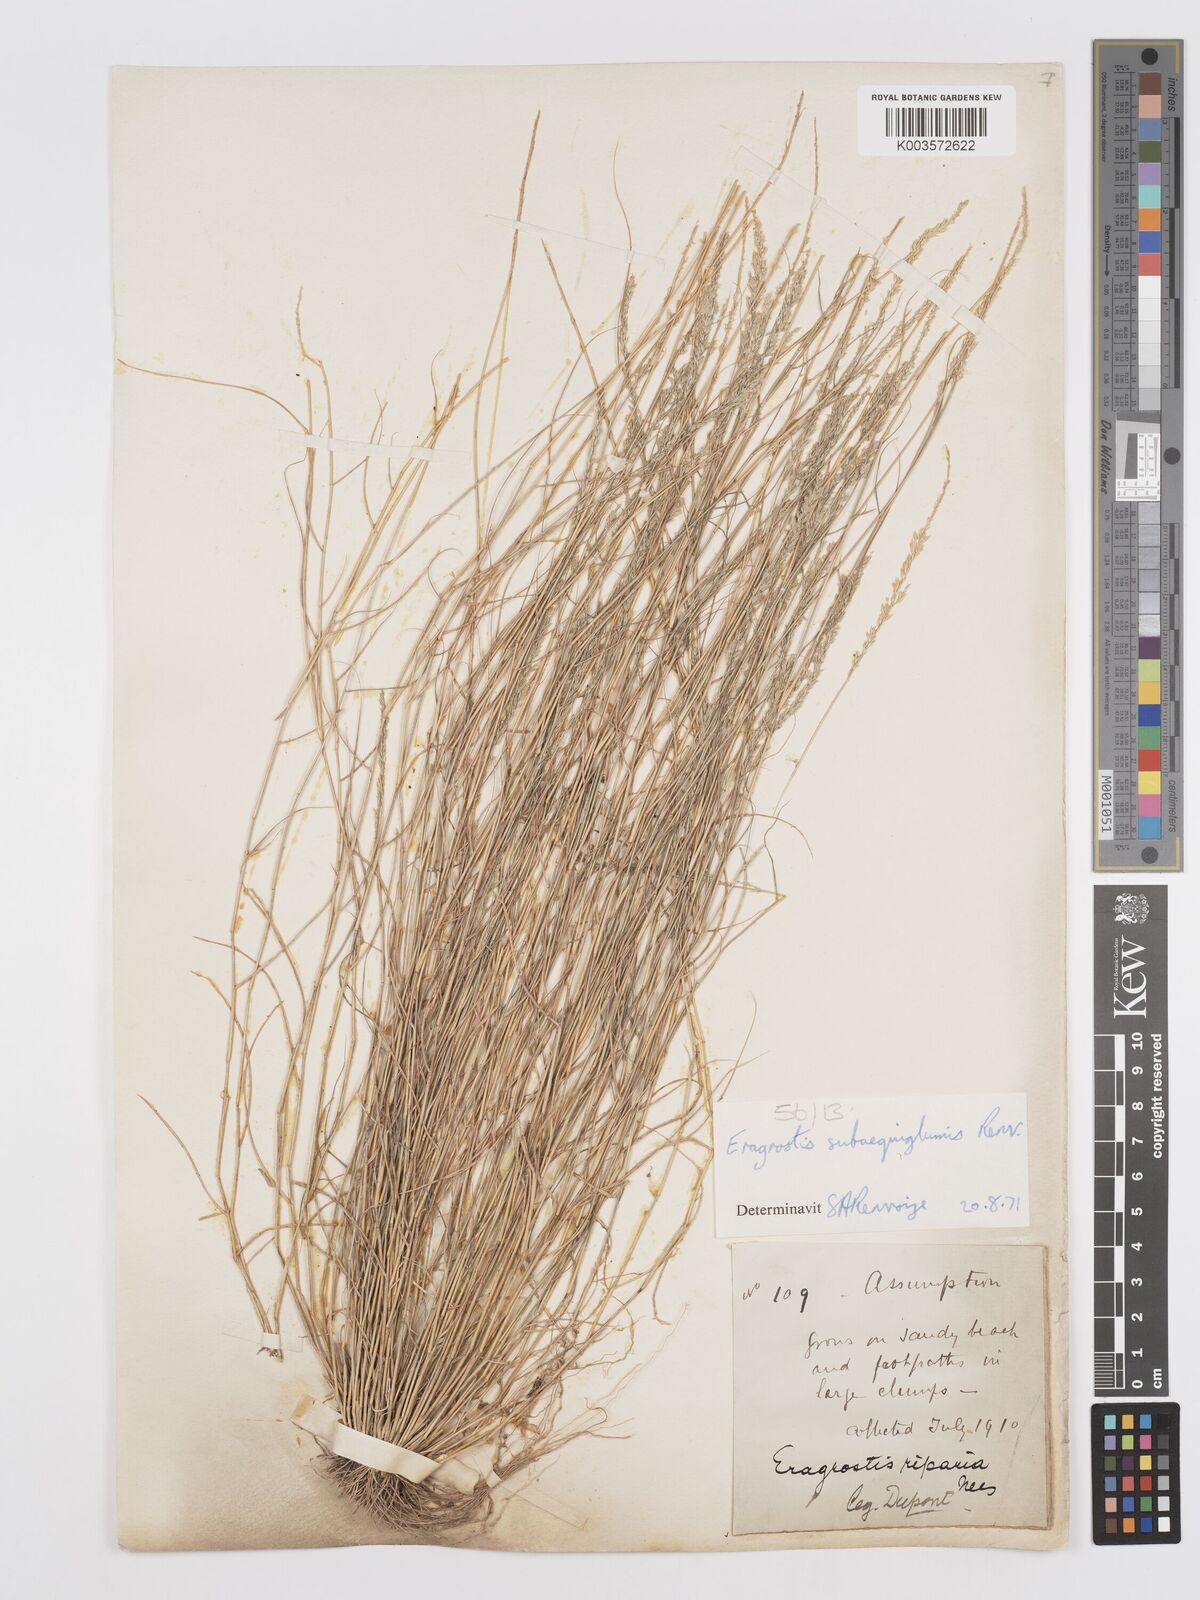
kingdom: Plantae
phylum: Tracheophyta
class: Liliopsida
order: Poales
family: Poaceae
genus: Eragrostis
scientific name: Eragrostis subaequiglumis
